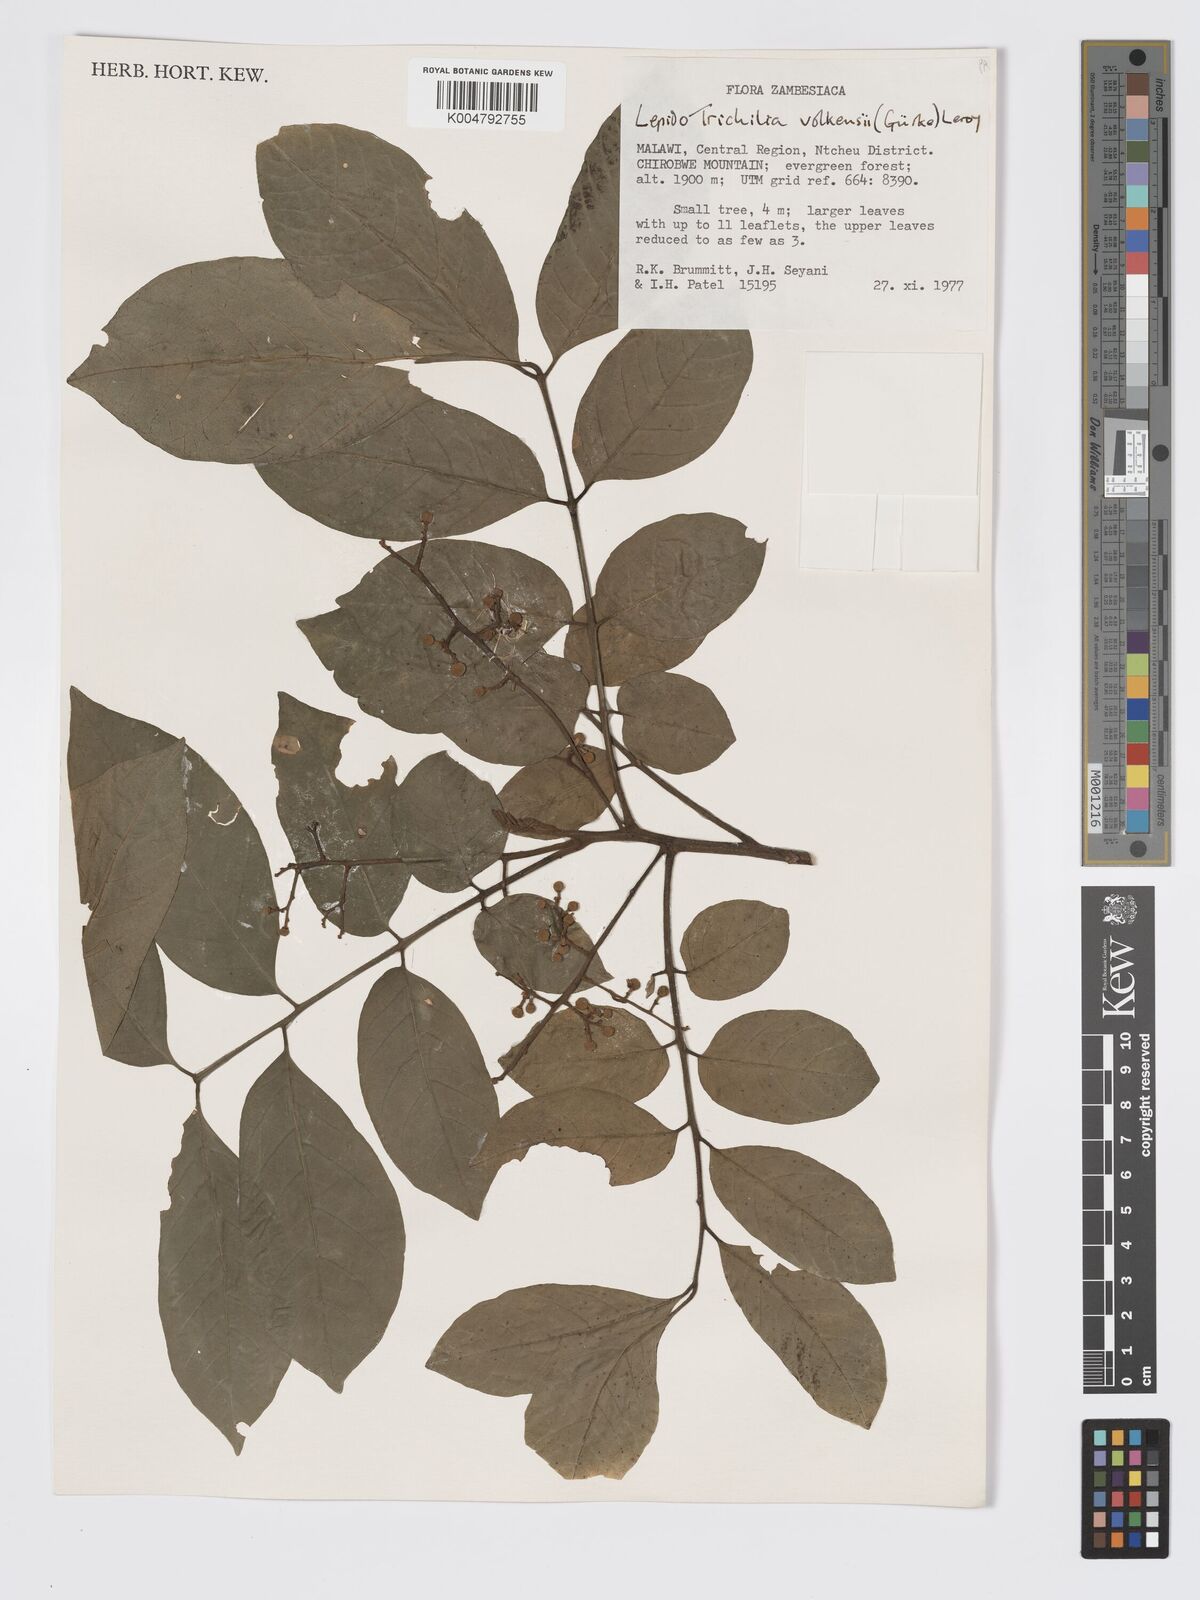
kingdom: Plantae
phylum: Tracheophyta
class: Magnoliopsida
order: Sapindales
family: Meliaceae
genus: Lepidotrichilia
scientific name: Lepidotrichilia volkensii
